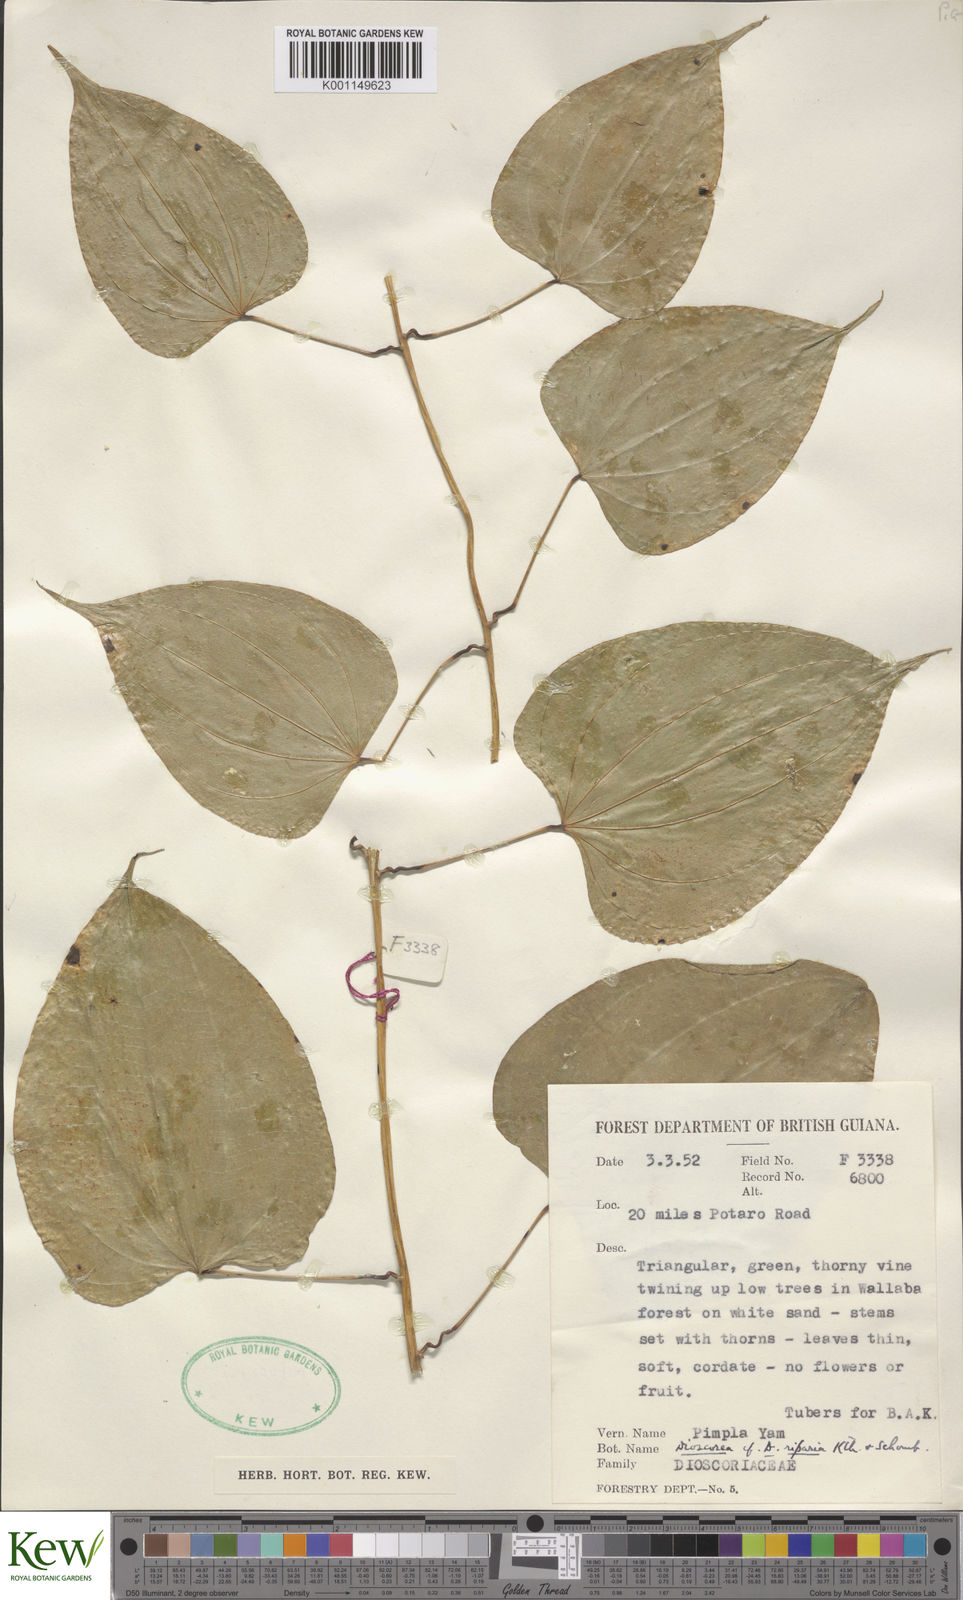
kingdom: Plantae
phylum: Tracheophyta
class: Liliopsida
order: Dioscoreales
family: Dioscoreaceae
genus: Dioscorea
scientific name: Dioscorea chondrocarpa
